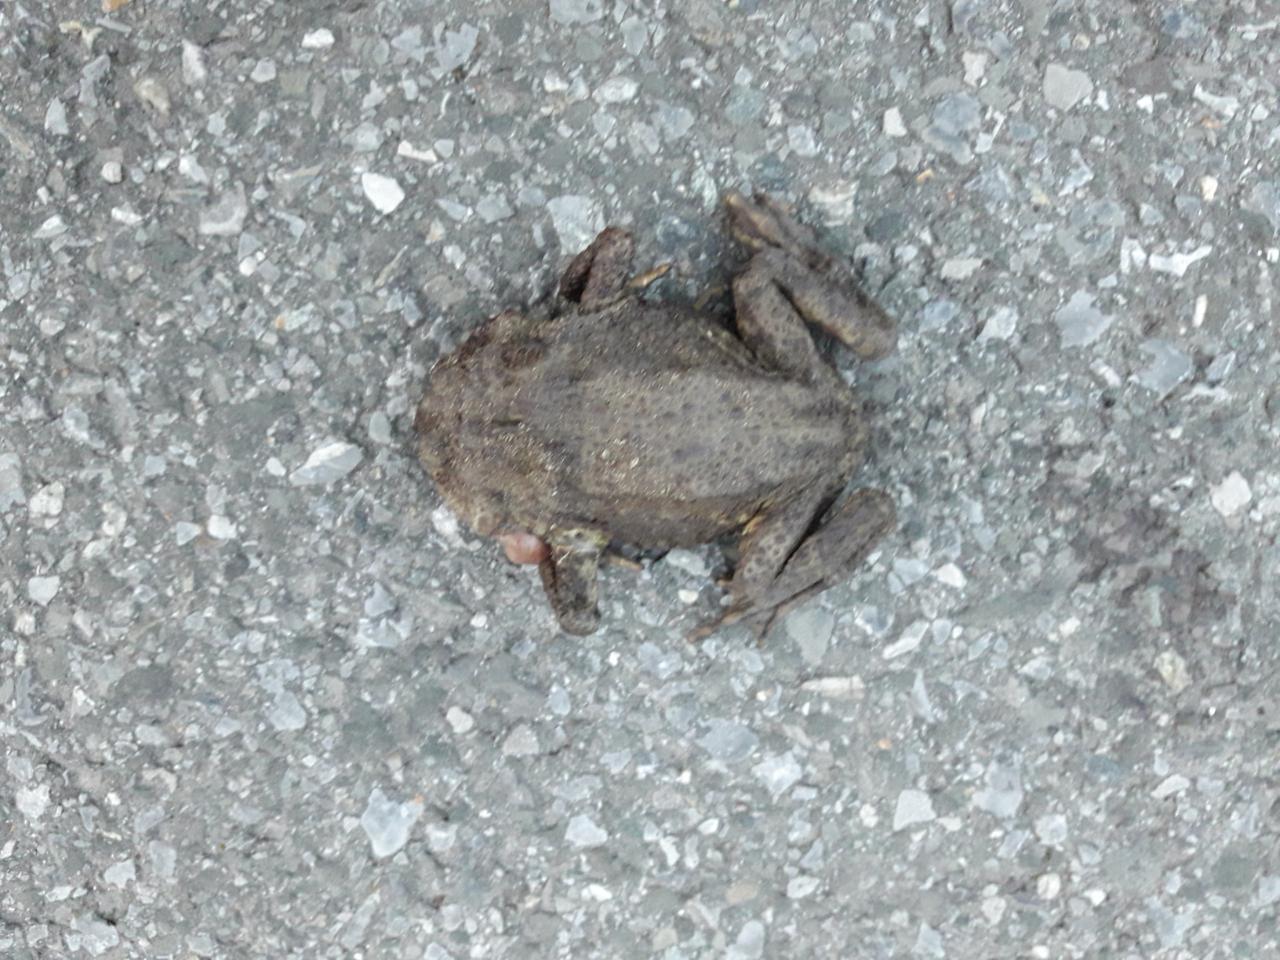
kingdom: Animalia
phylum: Chordata
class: Amphibia
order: Anura
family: Bufonidae
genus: Bufo
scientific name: Bufo bufo
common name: Common toad
